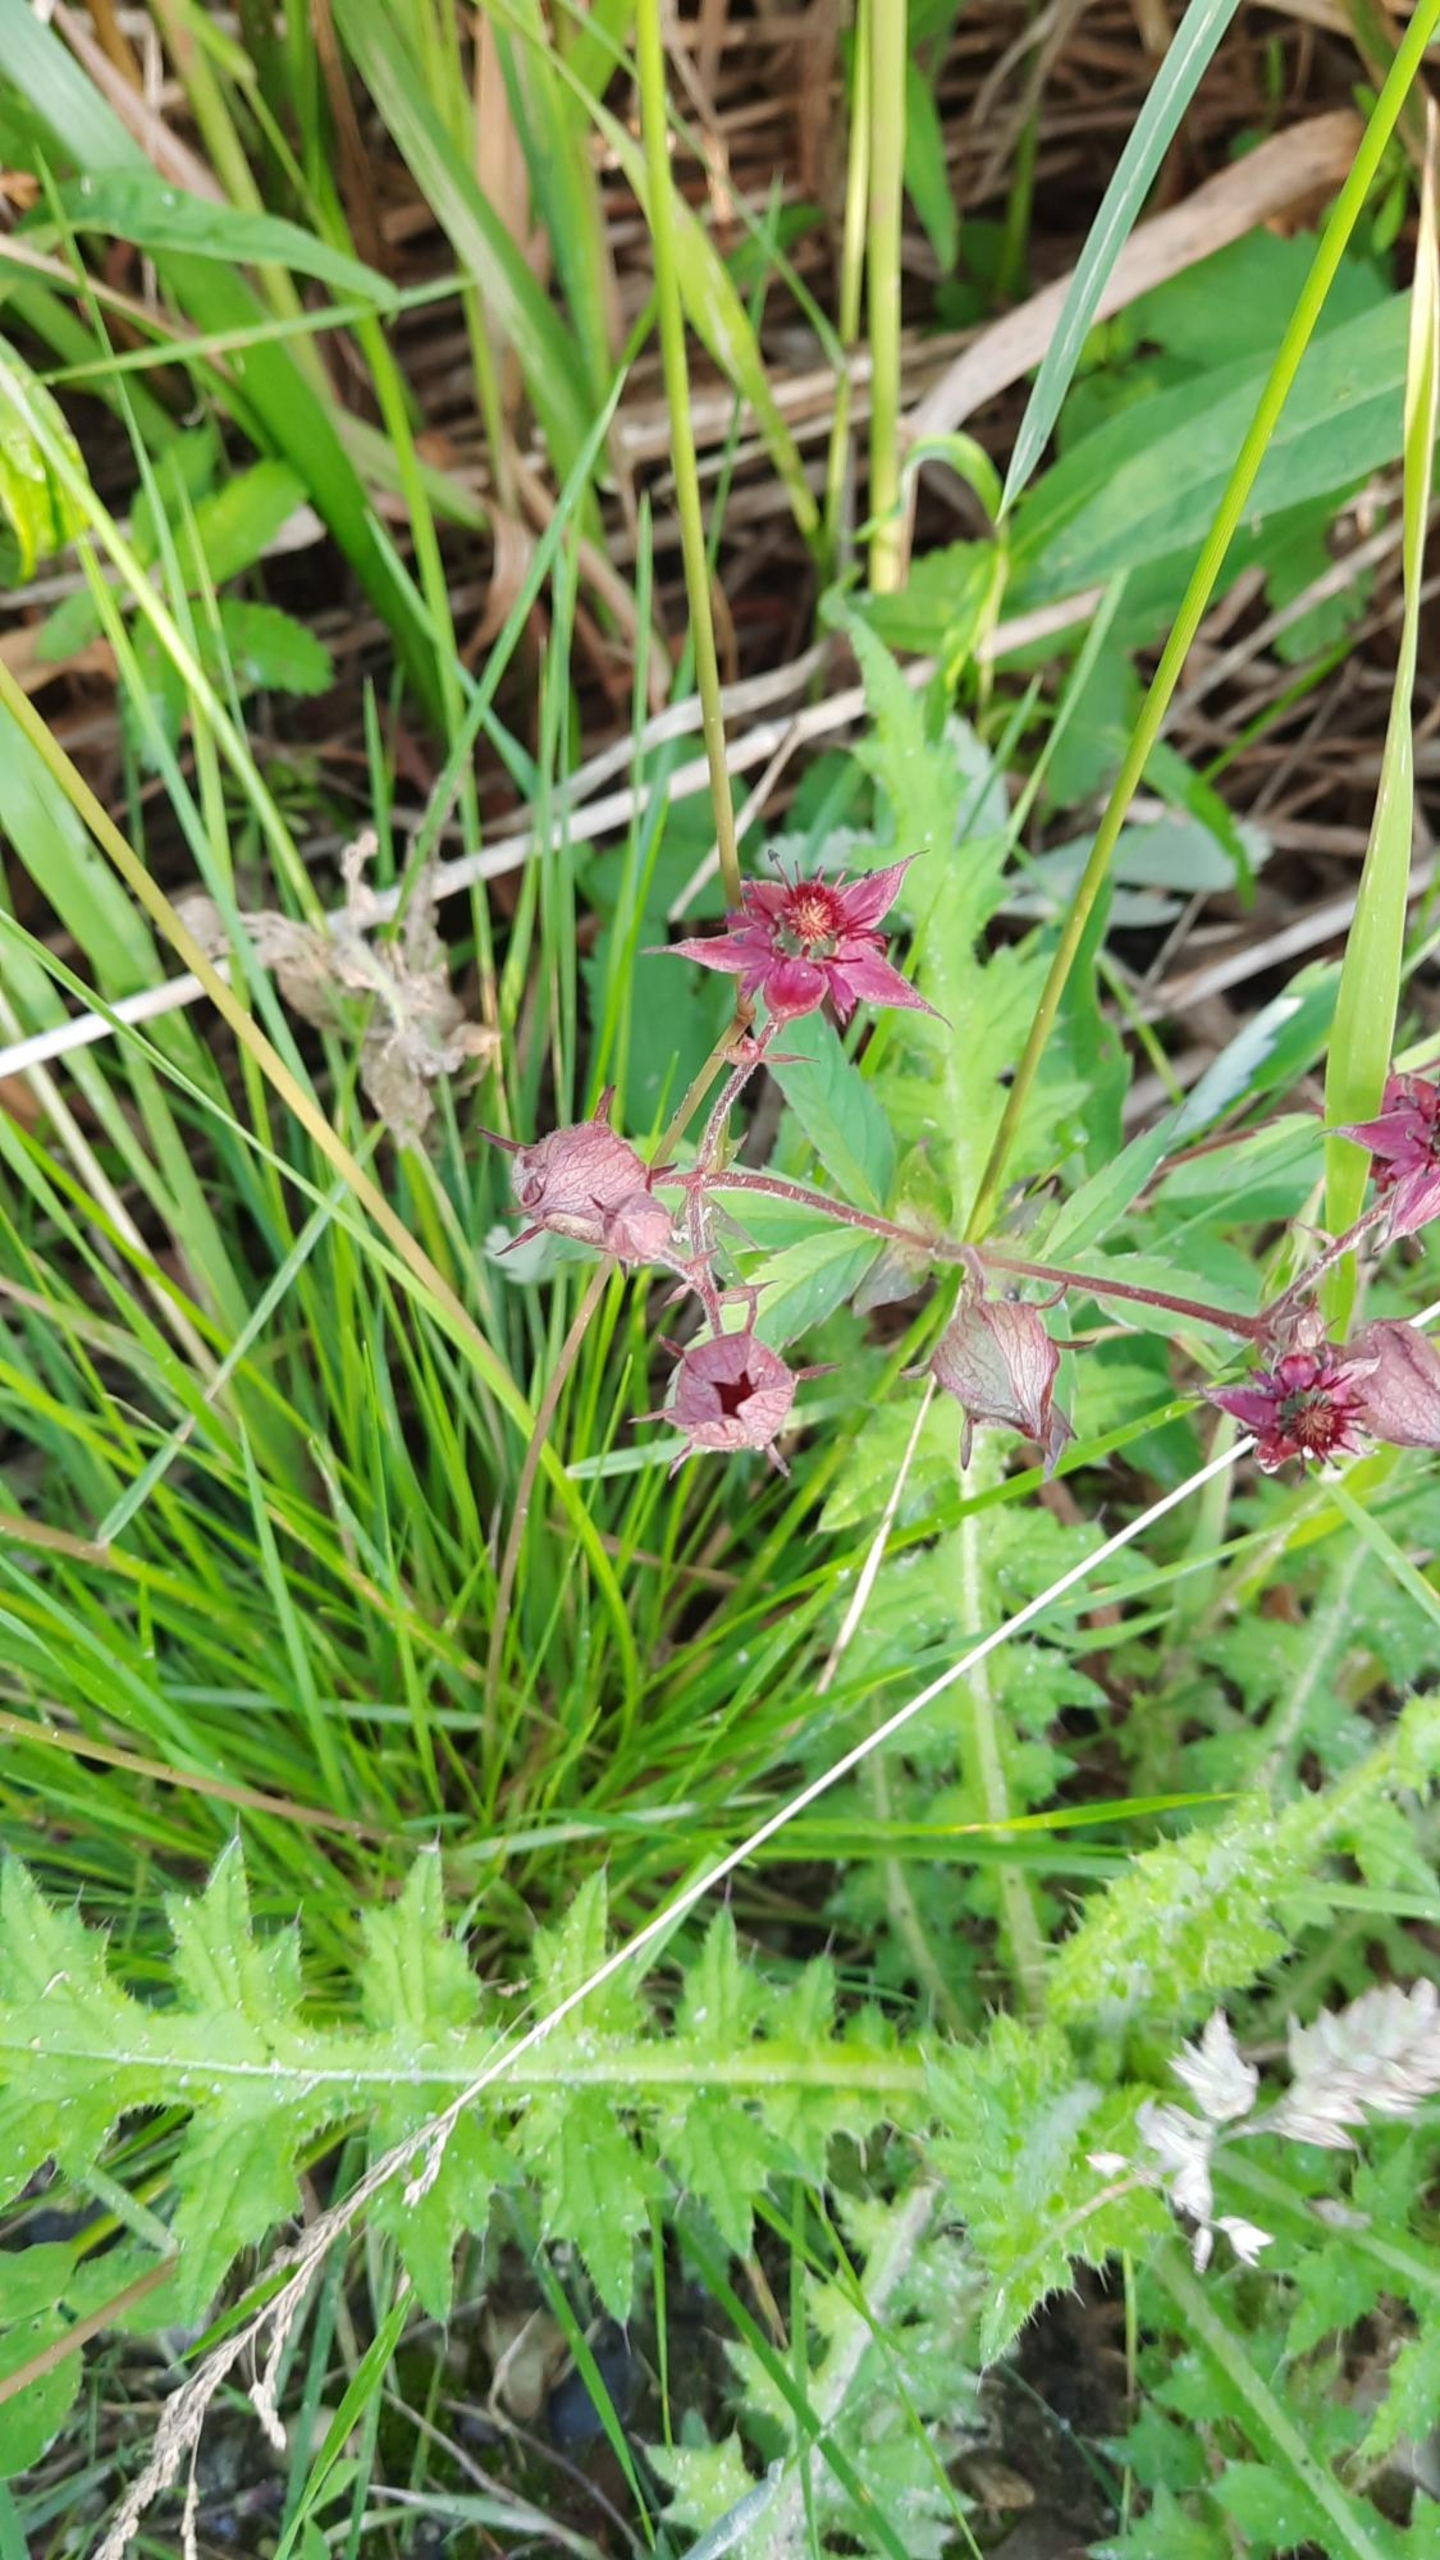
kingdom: Plantae
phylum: Tracheophyta
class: Magnoliopsida
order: Rosales
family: Rosaceae
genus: Comarum
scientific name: Comarum palustre
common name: Kragefod
